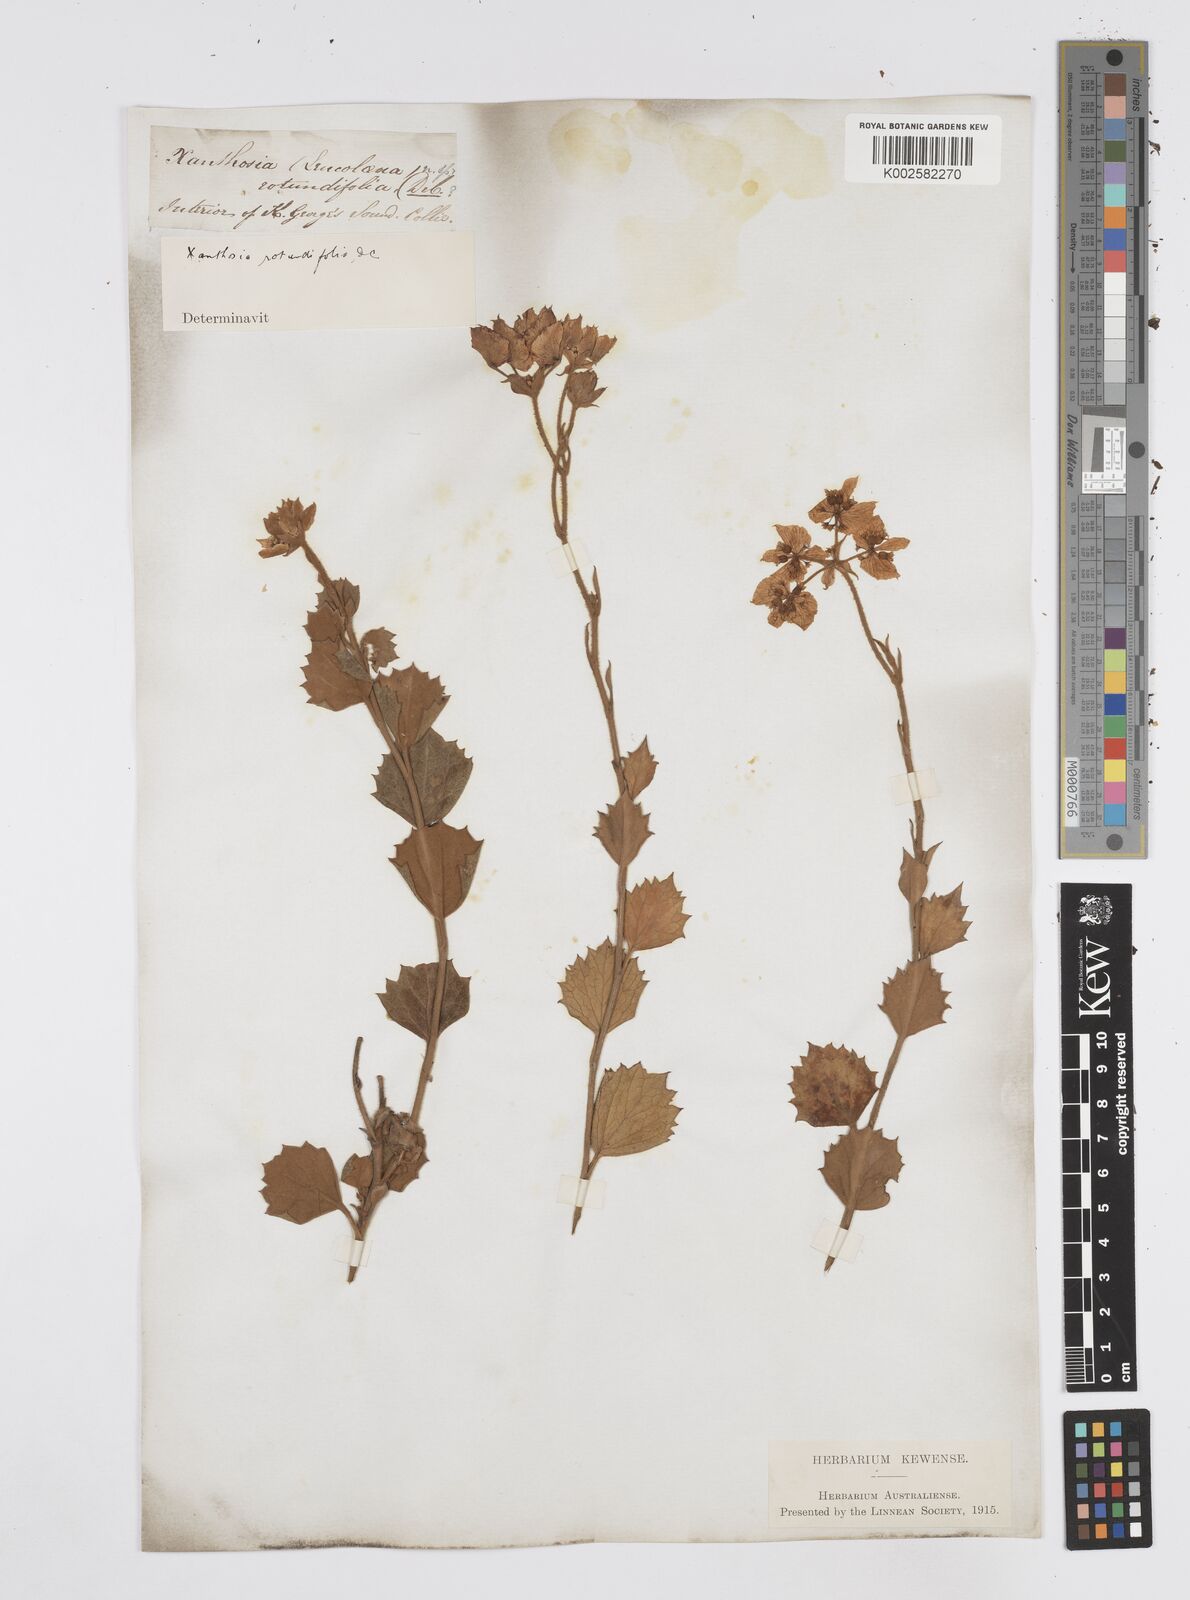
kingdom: Plantae
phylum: Tracheophyta
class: Magnoliopsida
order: Apiales
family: Apiaceae
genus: Xanthosia
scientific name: Xanthosia rotundifolia
